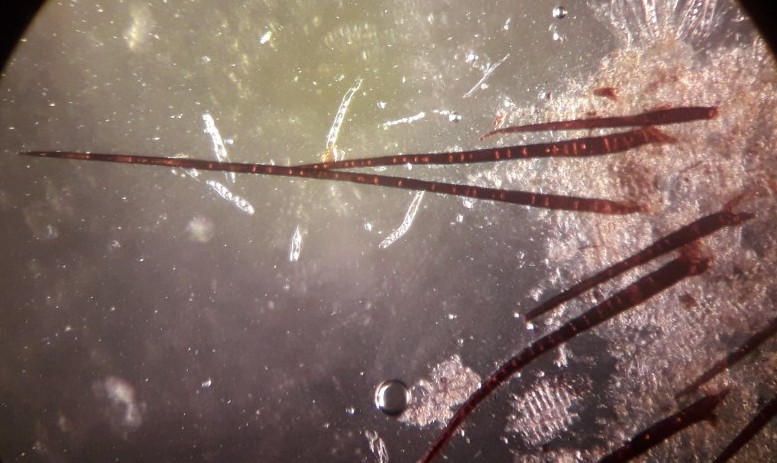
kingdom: Fungi
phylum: Ascomycota
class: Pezizomycetes
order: Pezizales
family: Pyronemataceae
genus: Scutellinia
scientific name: Scutellinia scutellata
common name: frynset skjoldbæger
